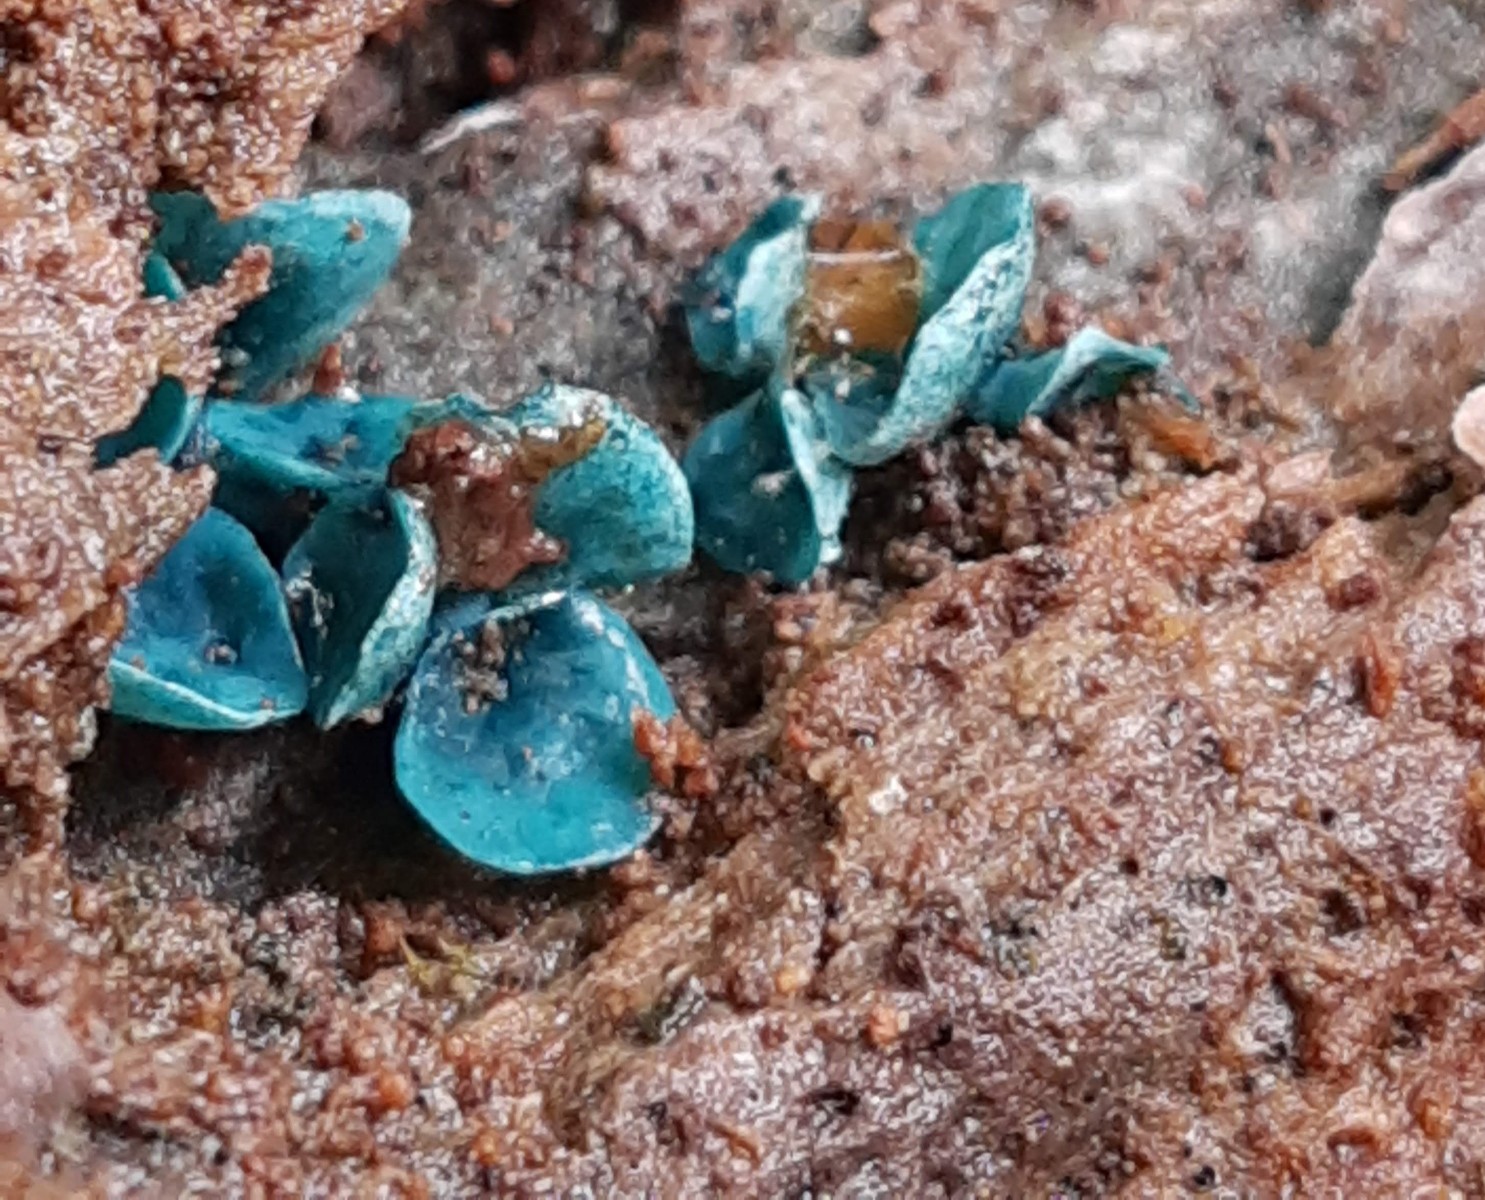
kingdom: Fungi
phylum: Ascomycota
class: Leotiomycetes
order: Helotiales
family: Chlorociboriaceae
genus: Chlorociboria
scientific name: Chlorociboria aeruginascens
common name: almindelig grønskive
